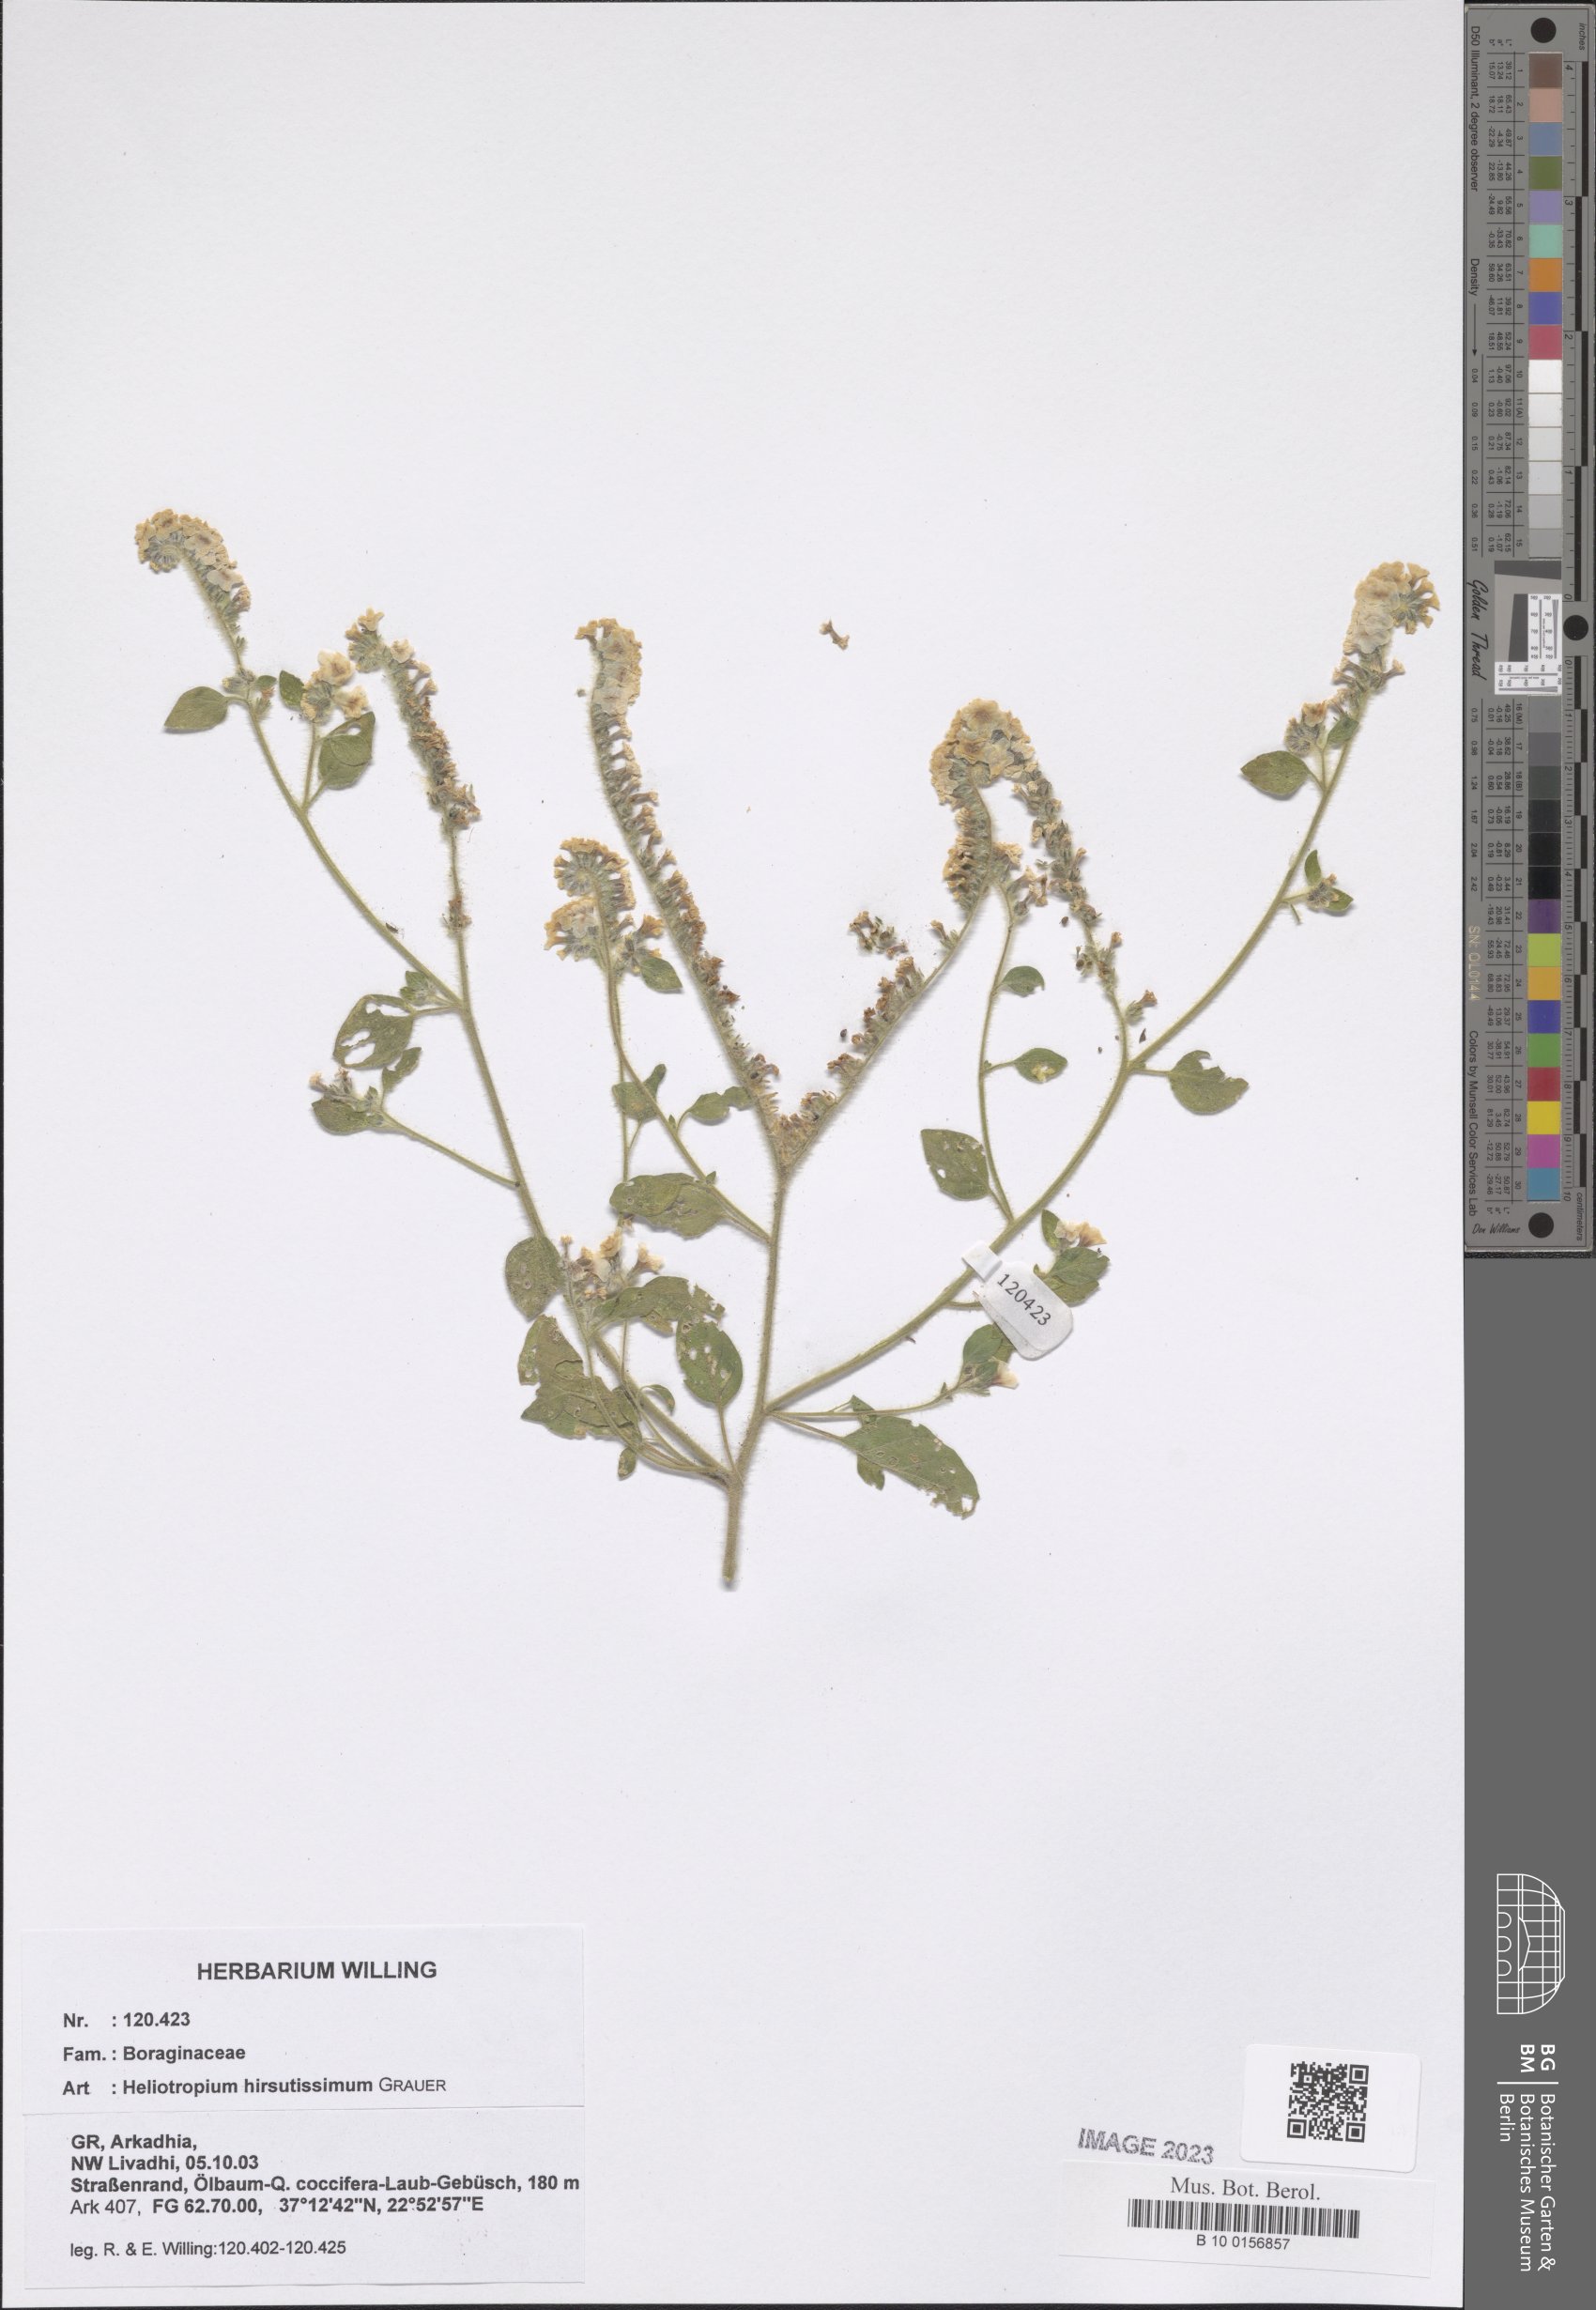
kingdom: Plantae
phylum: Tracheophyta
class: Magnoliopsida
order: Boraginales
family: Heliotropiaceae
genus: Heliotropium
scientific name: Heliotropium hirsutissimum
